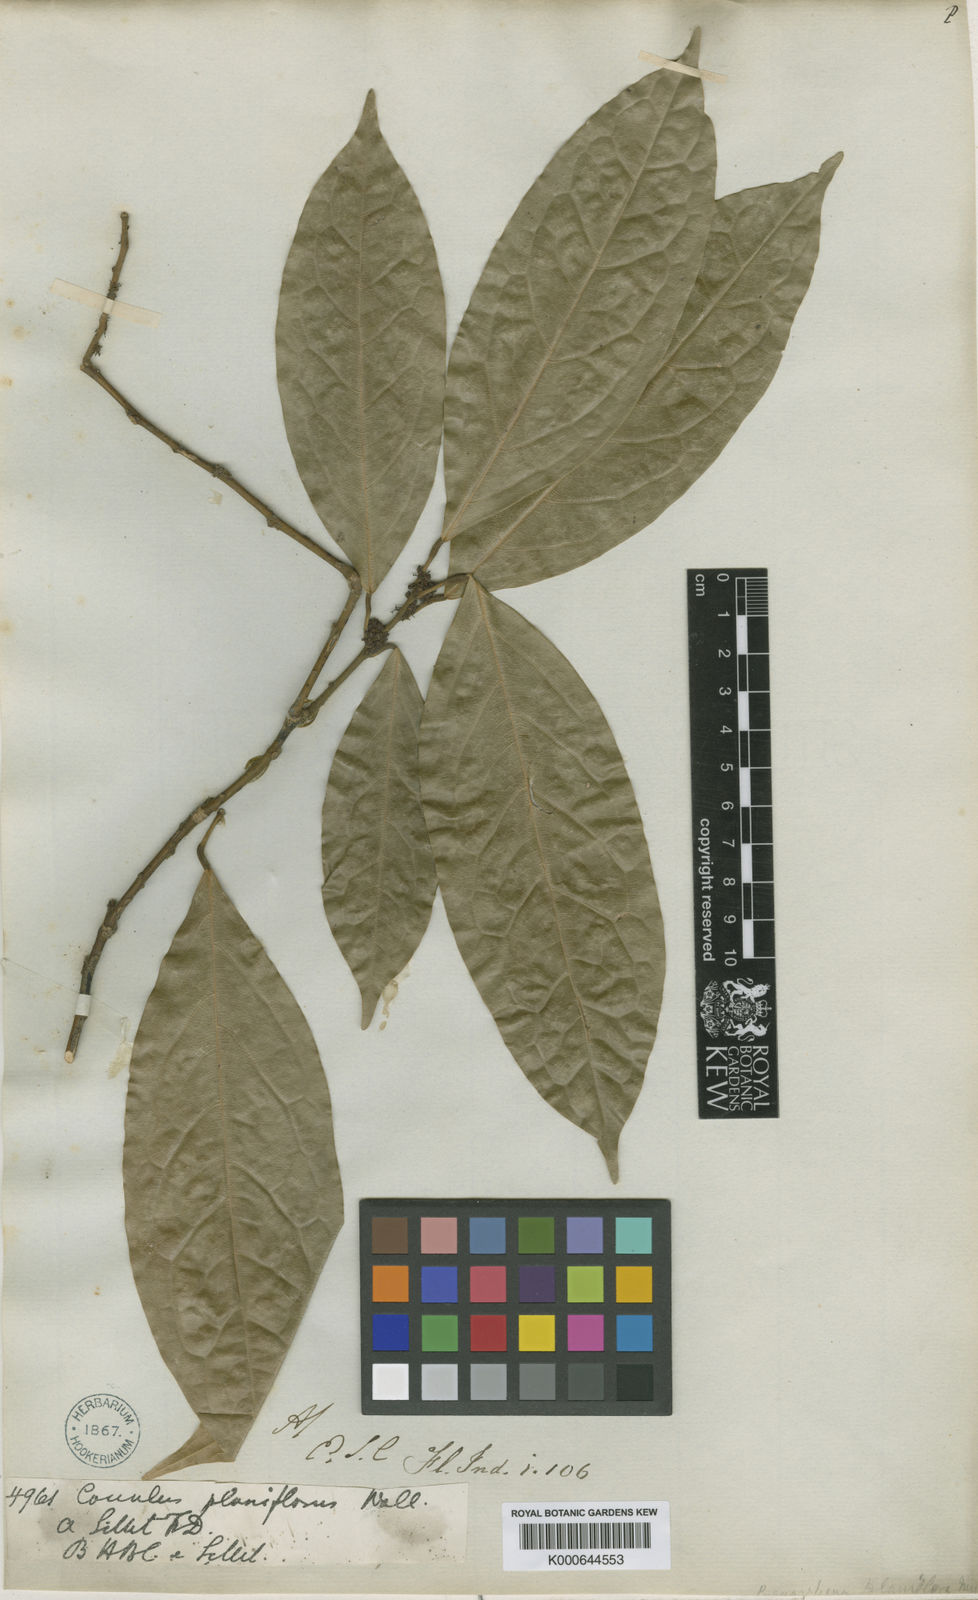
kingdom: Plantae
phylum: Tracheophyta
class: Magnoliopsida
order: Ranunculales
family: Menispermaceae
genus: Pycnarrhena
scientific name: Pycnarrhena
